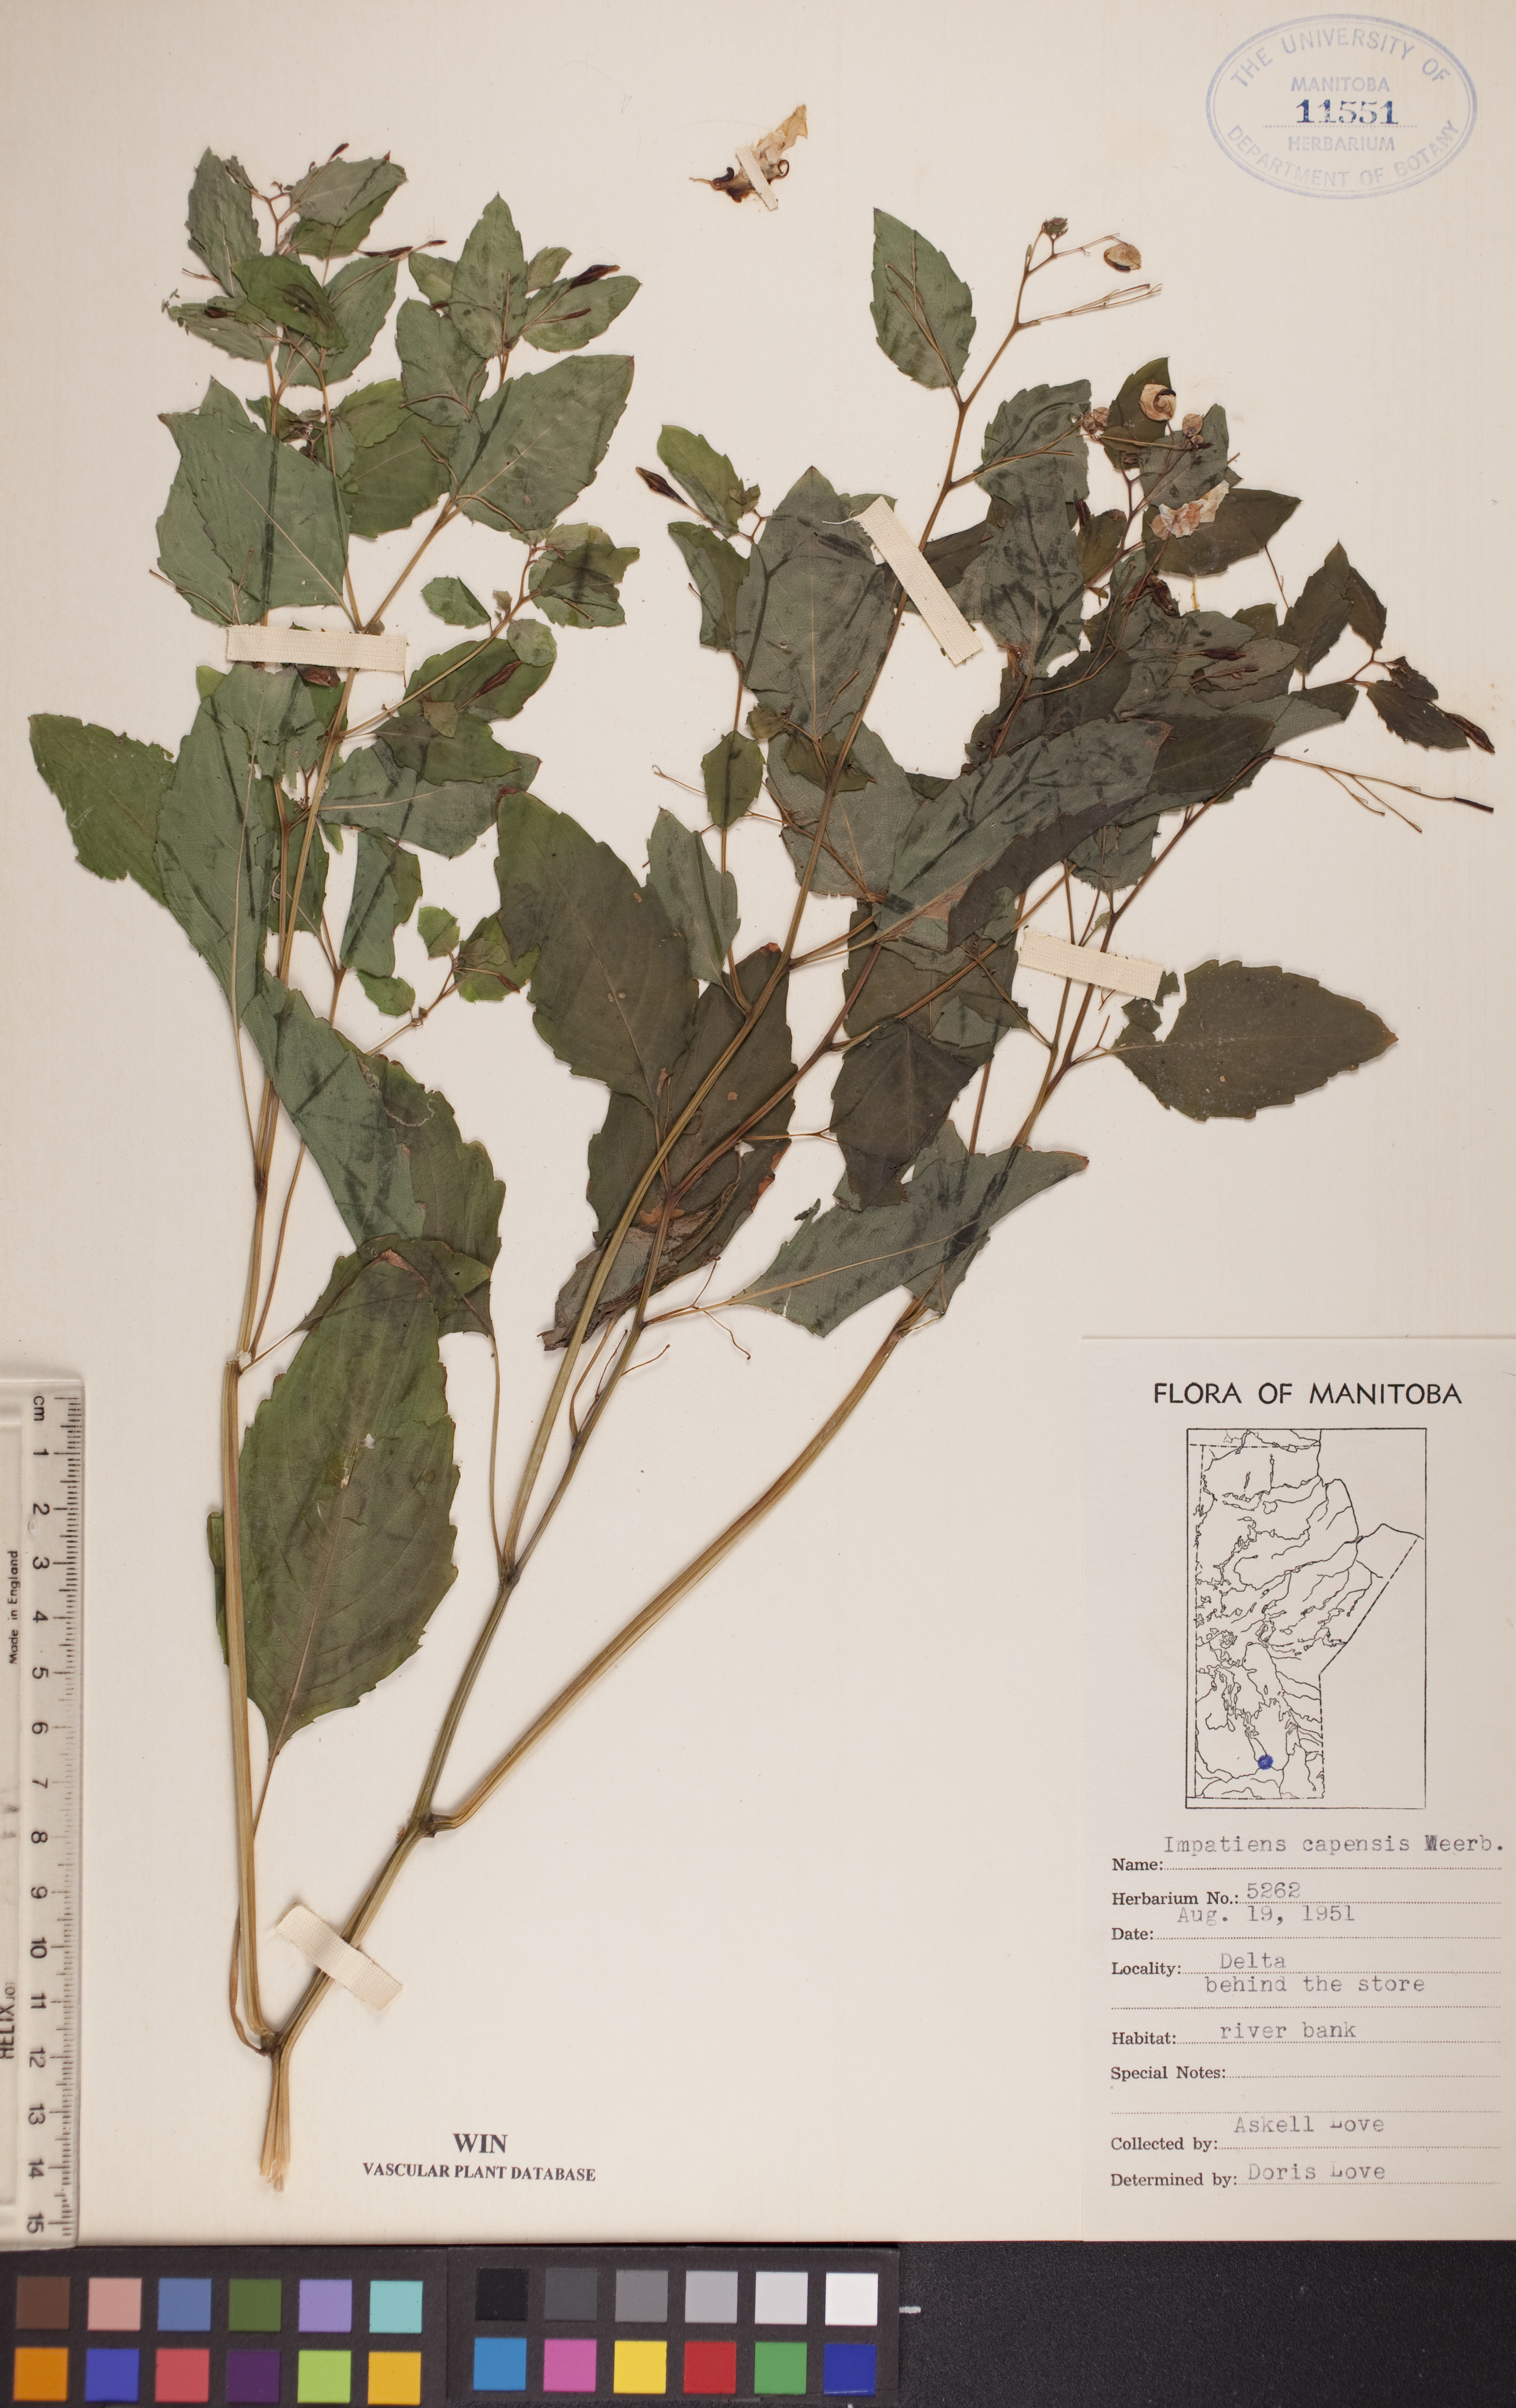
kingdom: Plantae
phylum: Tracheophyta
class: Magnoliopsida
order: Ericales
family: Balsaminaceae
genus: Impatiens
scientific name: Impatiens capensis
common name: Orange balsam
